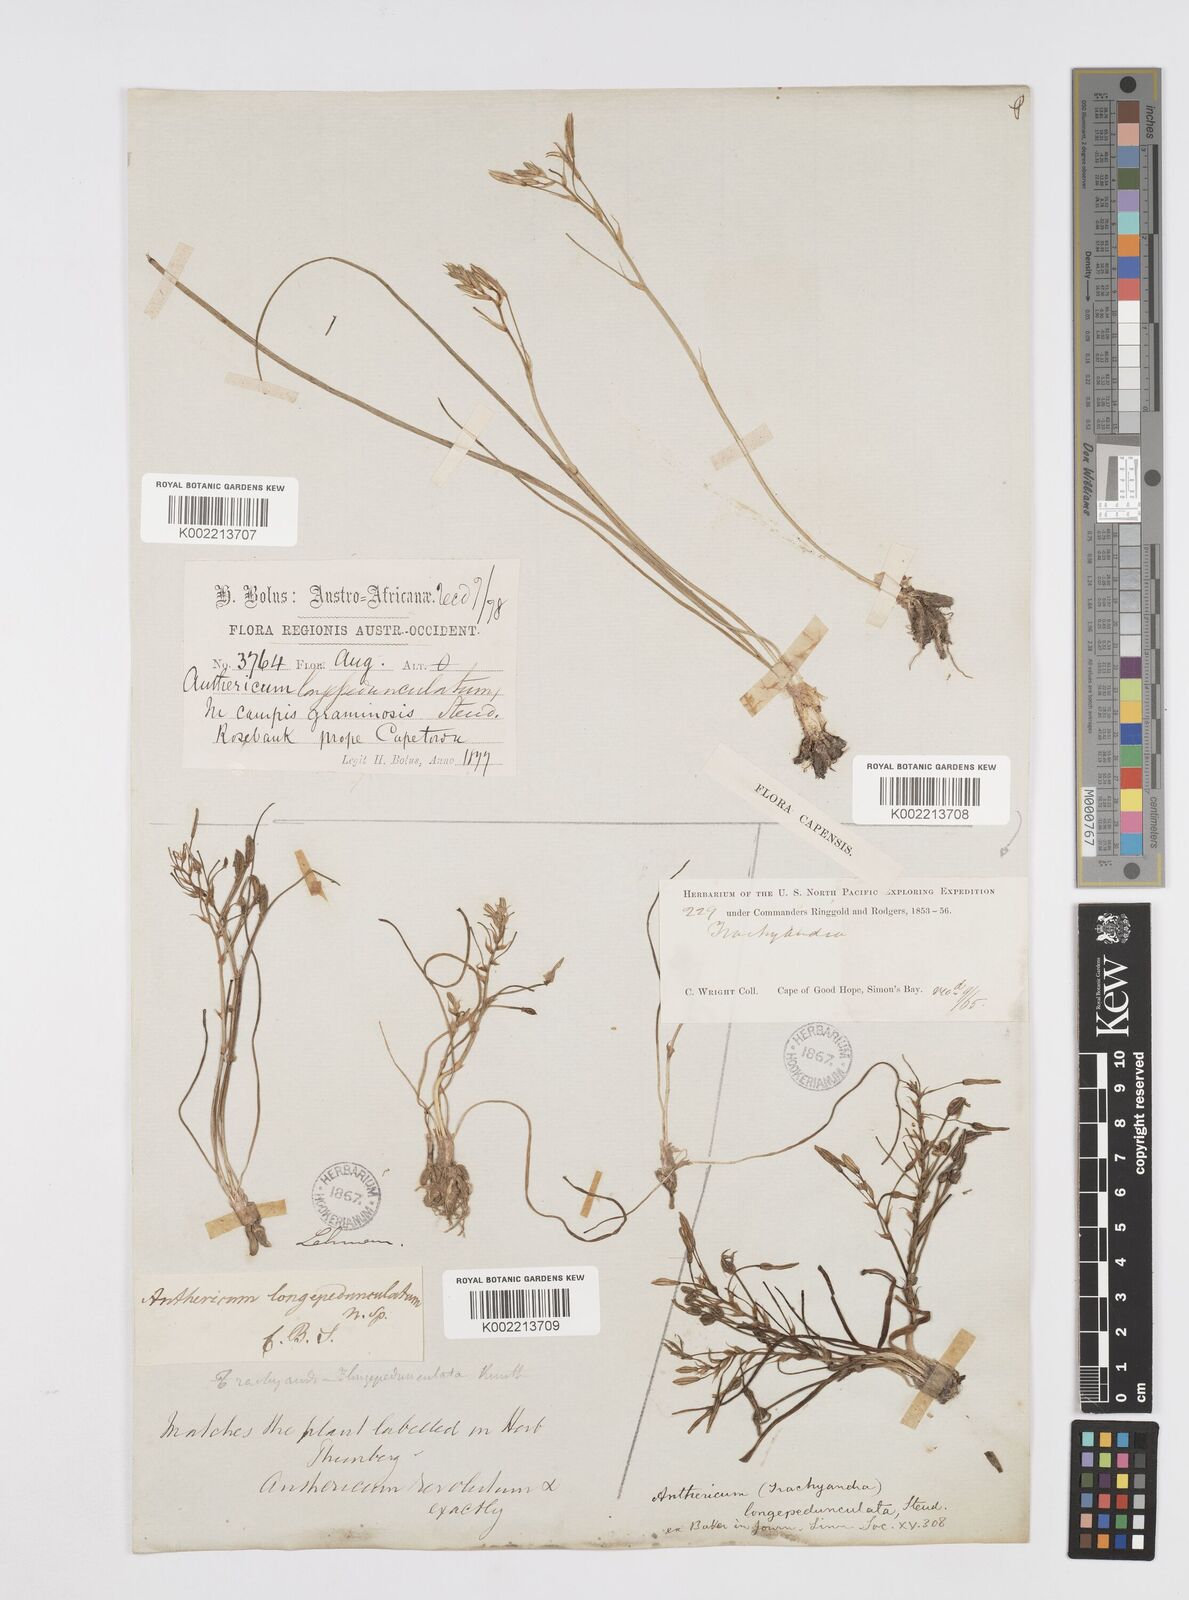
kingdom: Plantae
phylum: Tracheophyta
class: Liliopsida
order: Asparagales
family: Asphodelaceae
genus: Trachyandra
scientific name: Trachyandra filiformis
